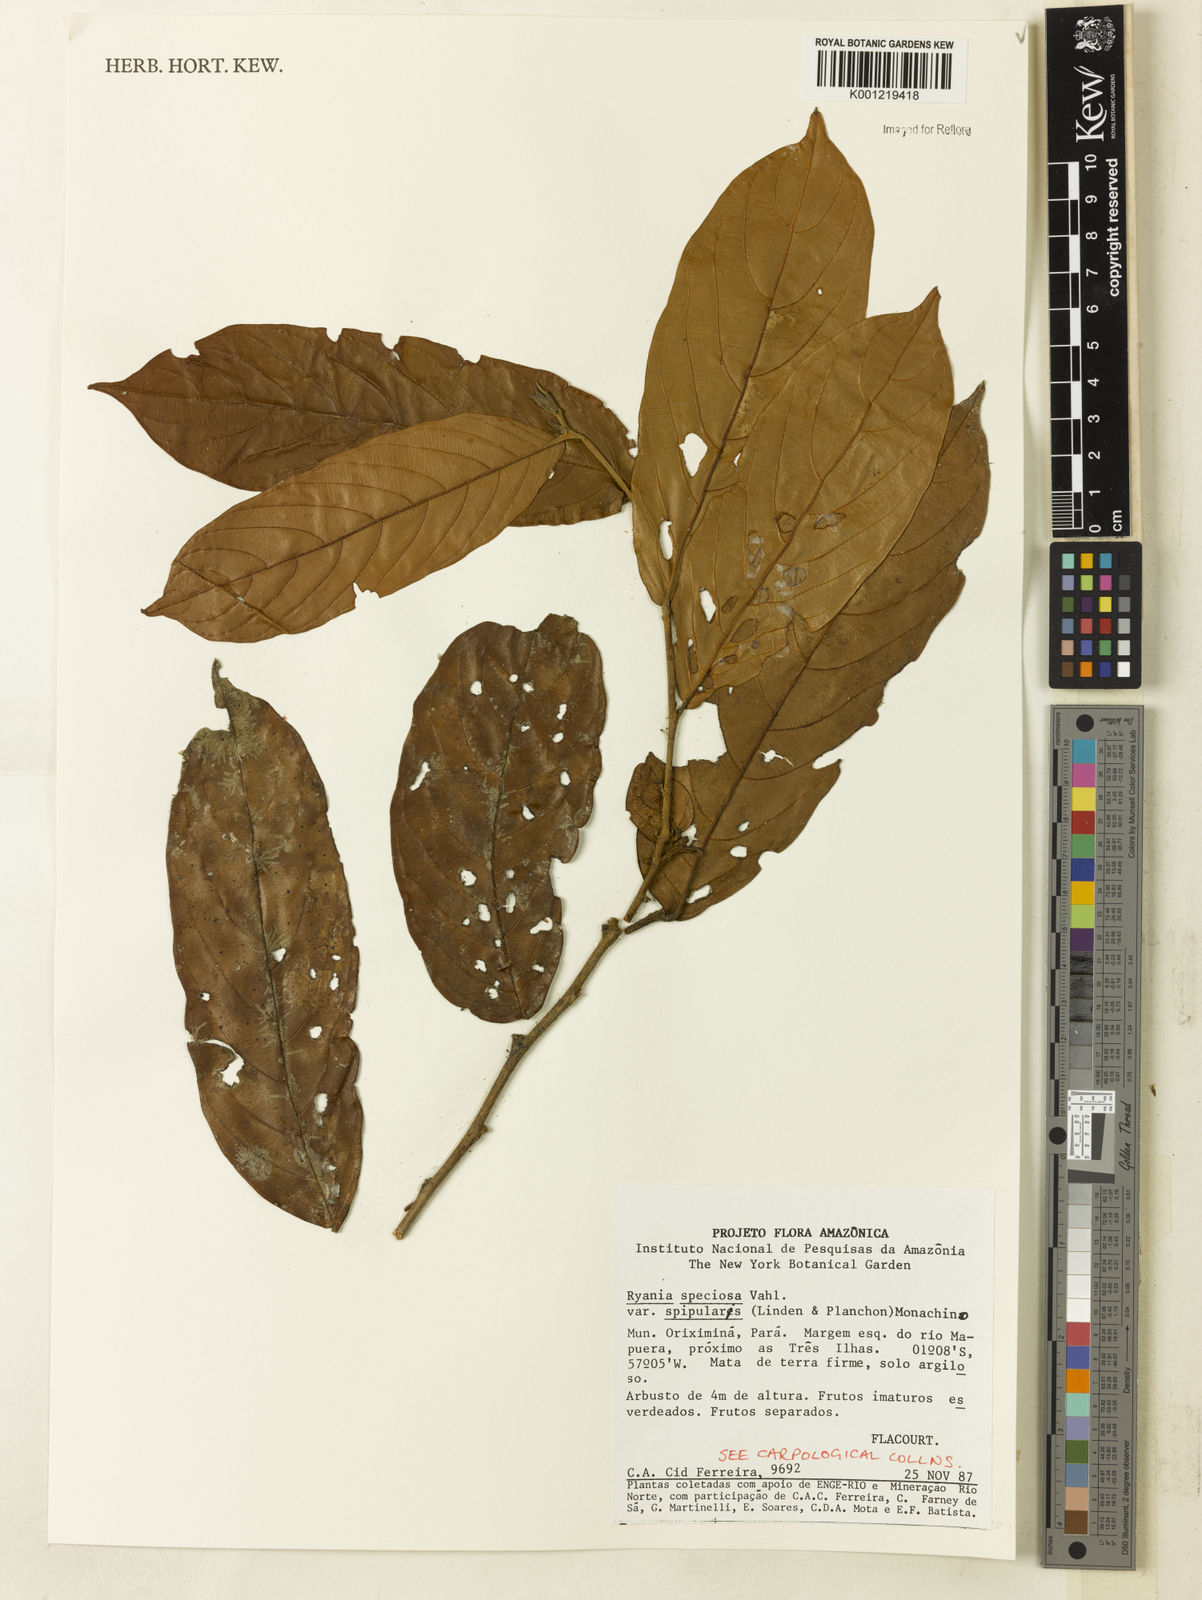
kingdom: Plantae
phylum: Tracheophyta
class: Magnoliopsida
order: Malpighiales
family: Salicaceae
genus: Ryania
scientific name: Ryania speciosa
